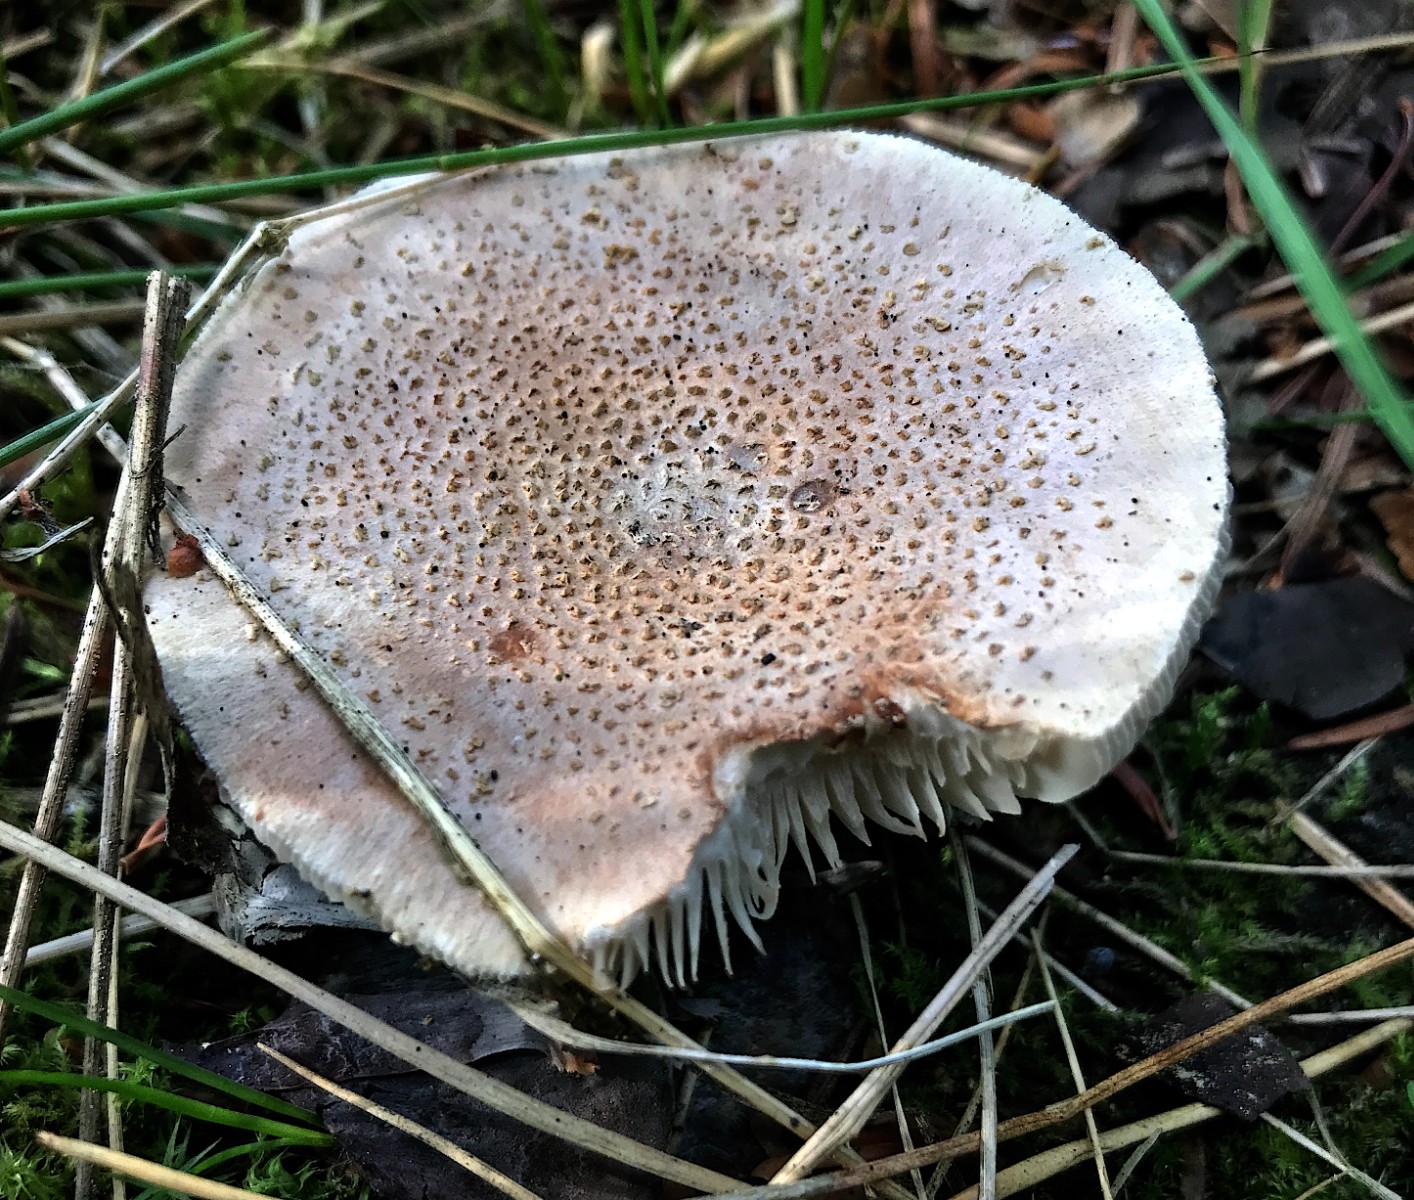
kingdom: Fungi
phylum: Basidiomycota
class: Agaricomycetes
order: Agaricales
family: Amanitaceae
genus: Amanita
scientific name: Amanita rubescens
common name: rødmende fluesvamp
